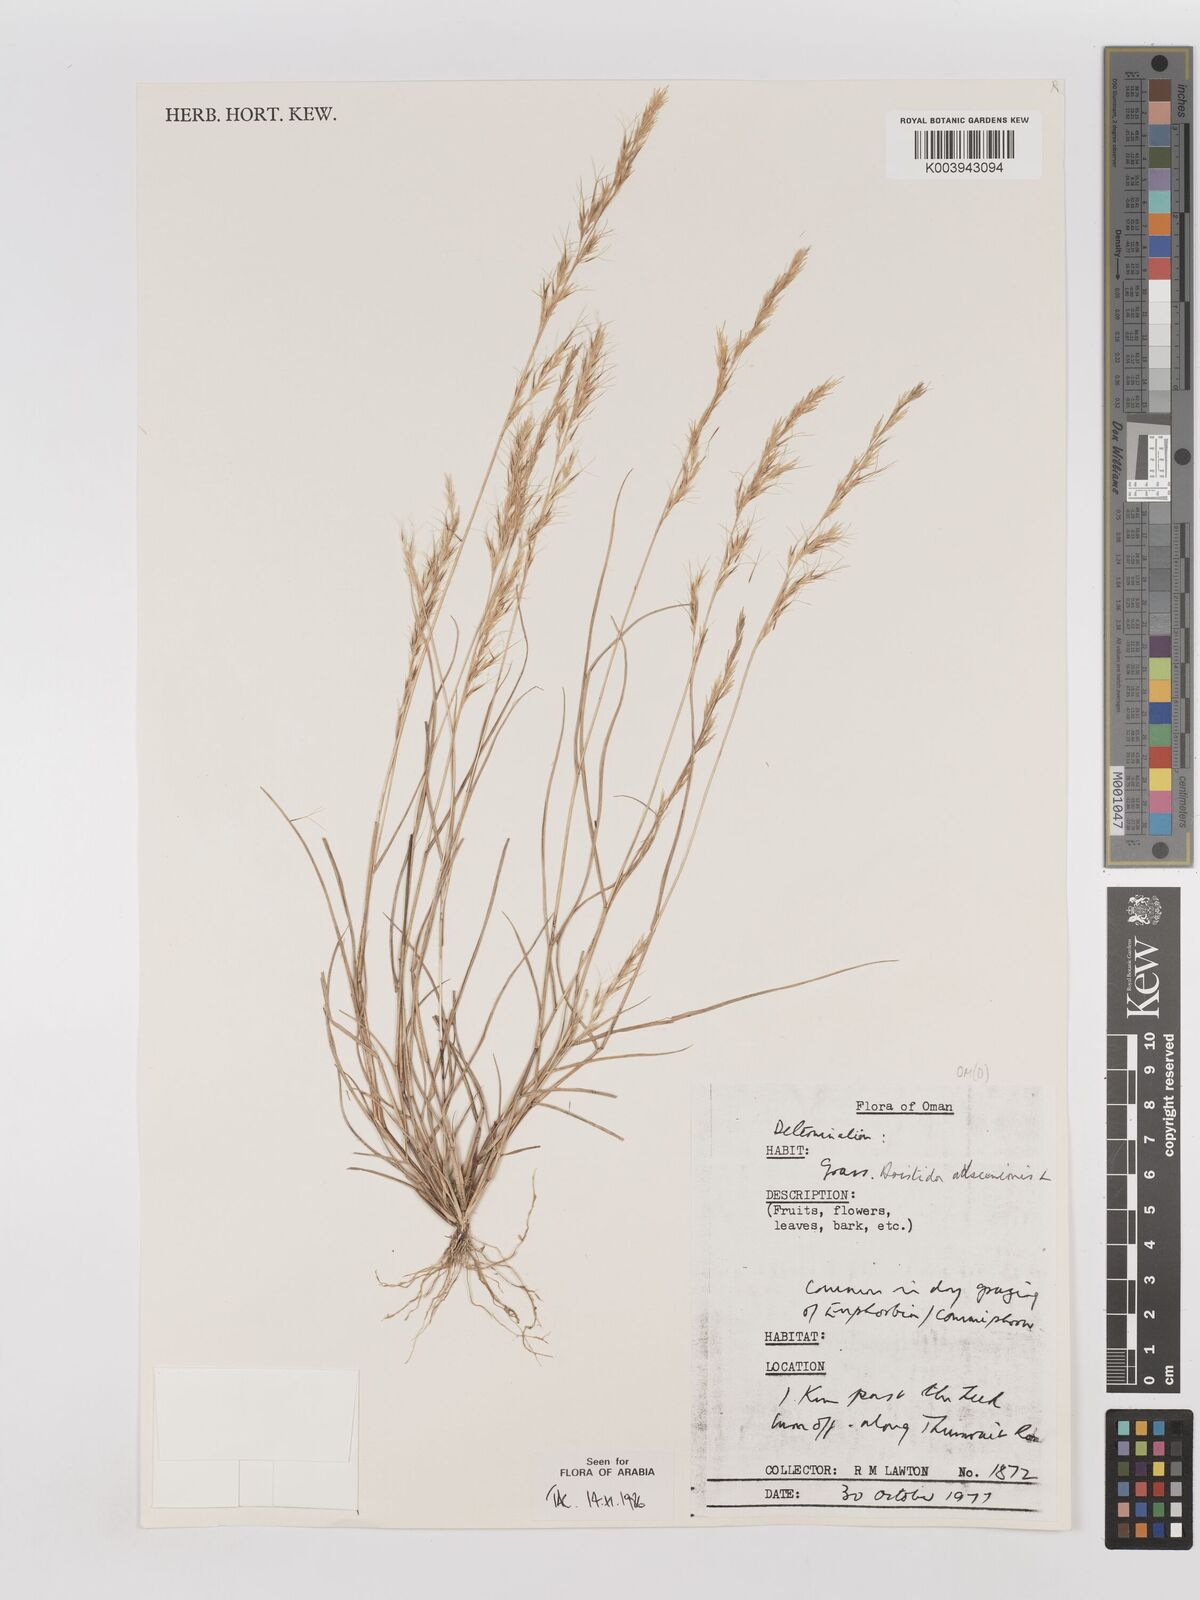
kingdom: Plantae
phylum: Tracheophyta
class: Liliopsida
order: Poales
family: Poaceae
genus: Aristida
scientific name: Aristida adscensionis
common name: Sixweeks threeawn
